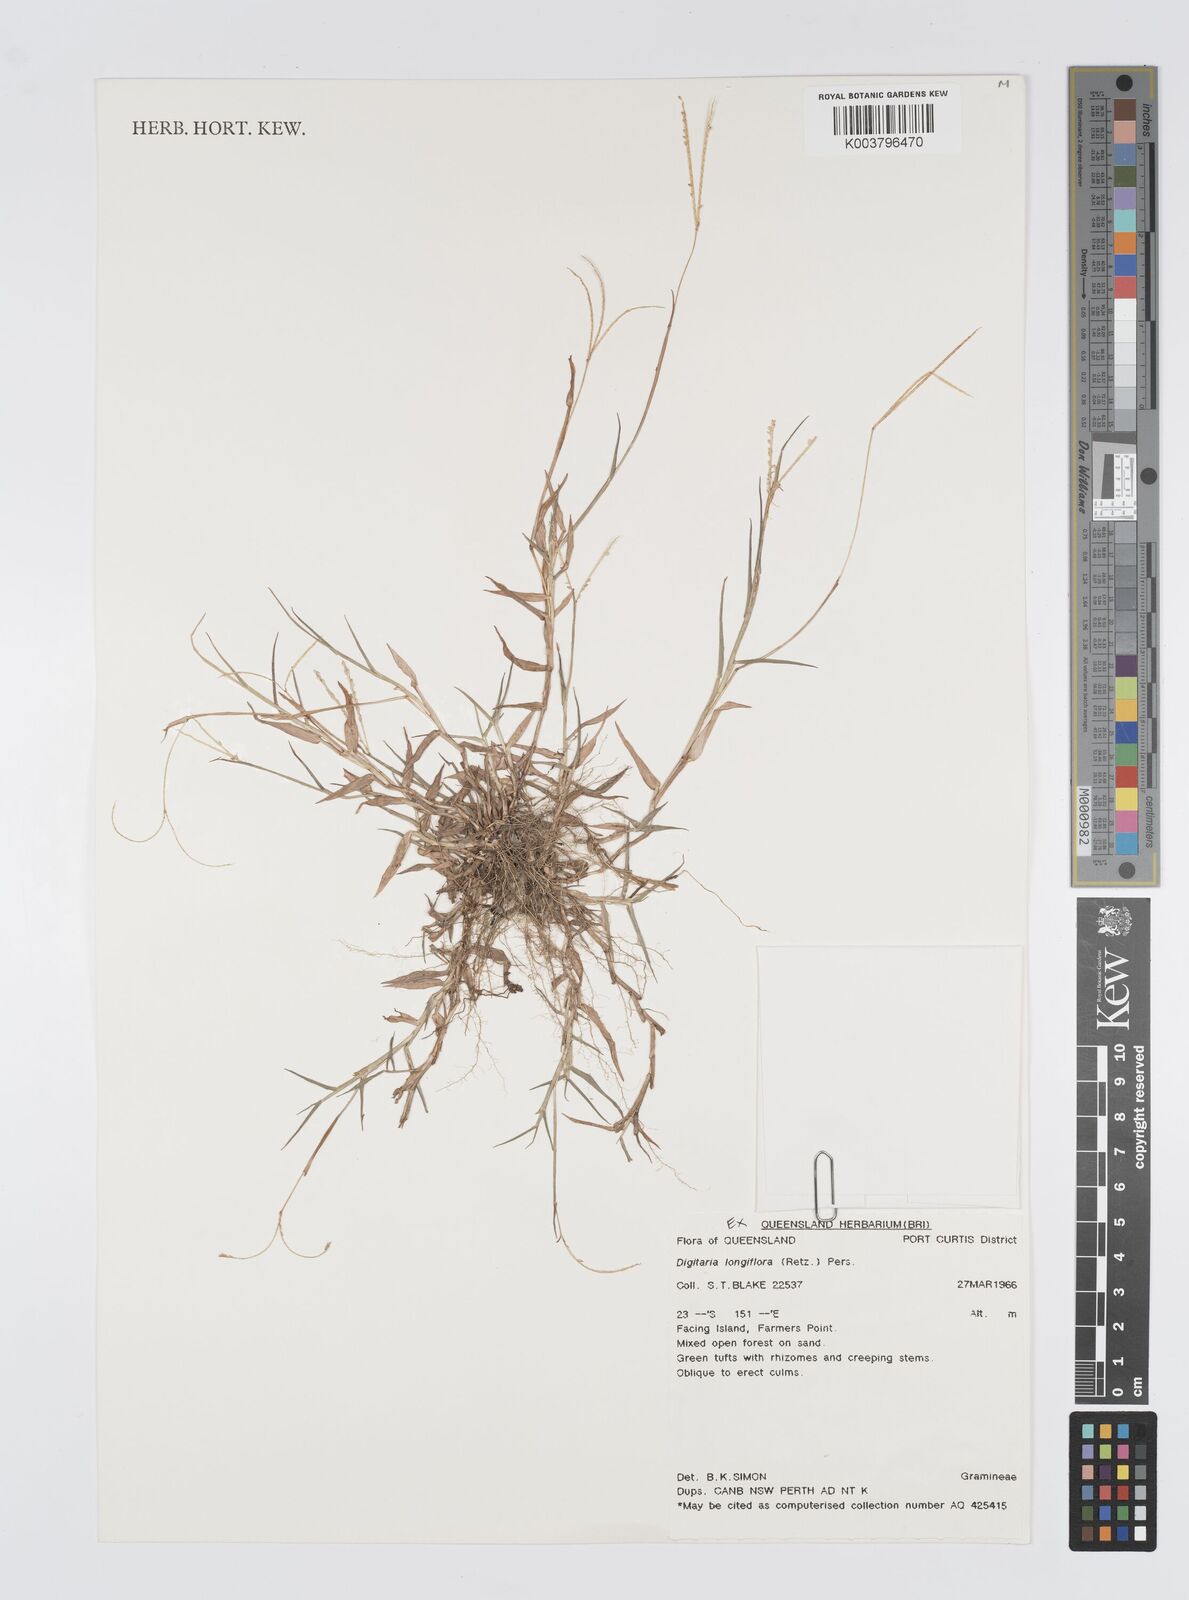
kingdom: Plantae
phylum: Tracheophyta
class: Liliopsida
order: Poales
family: Poaceae
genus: Digitaria
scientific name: Digitaria longiflora
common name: Wire crabgrass
